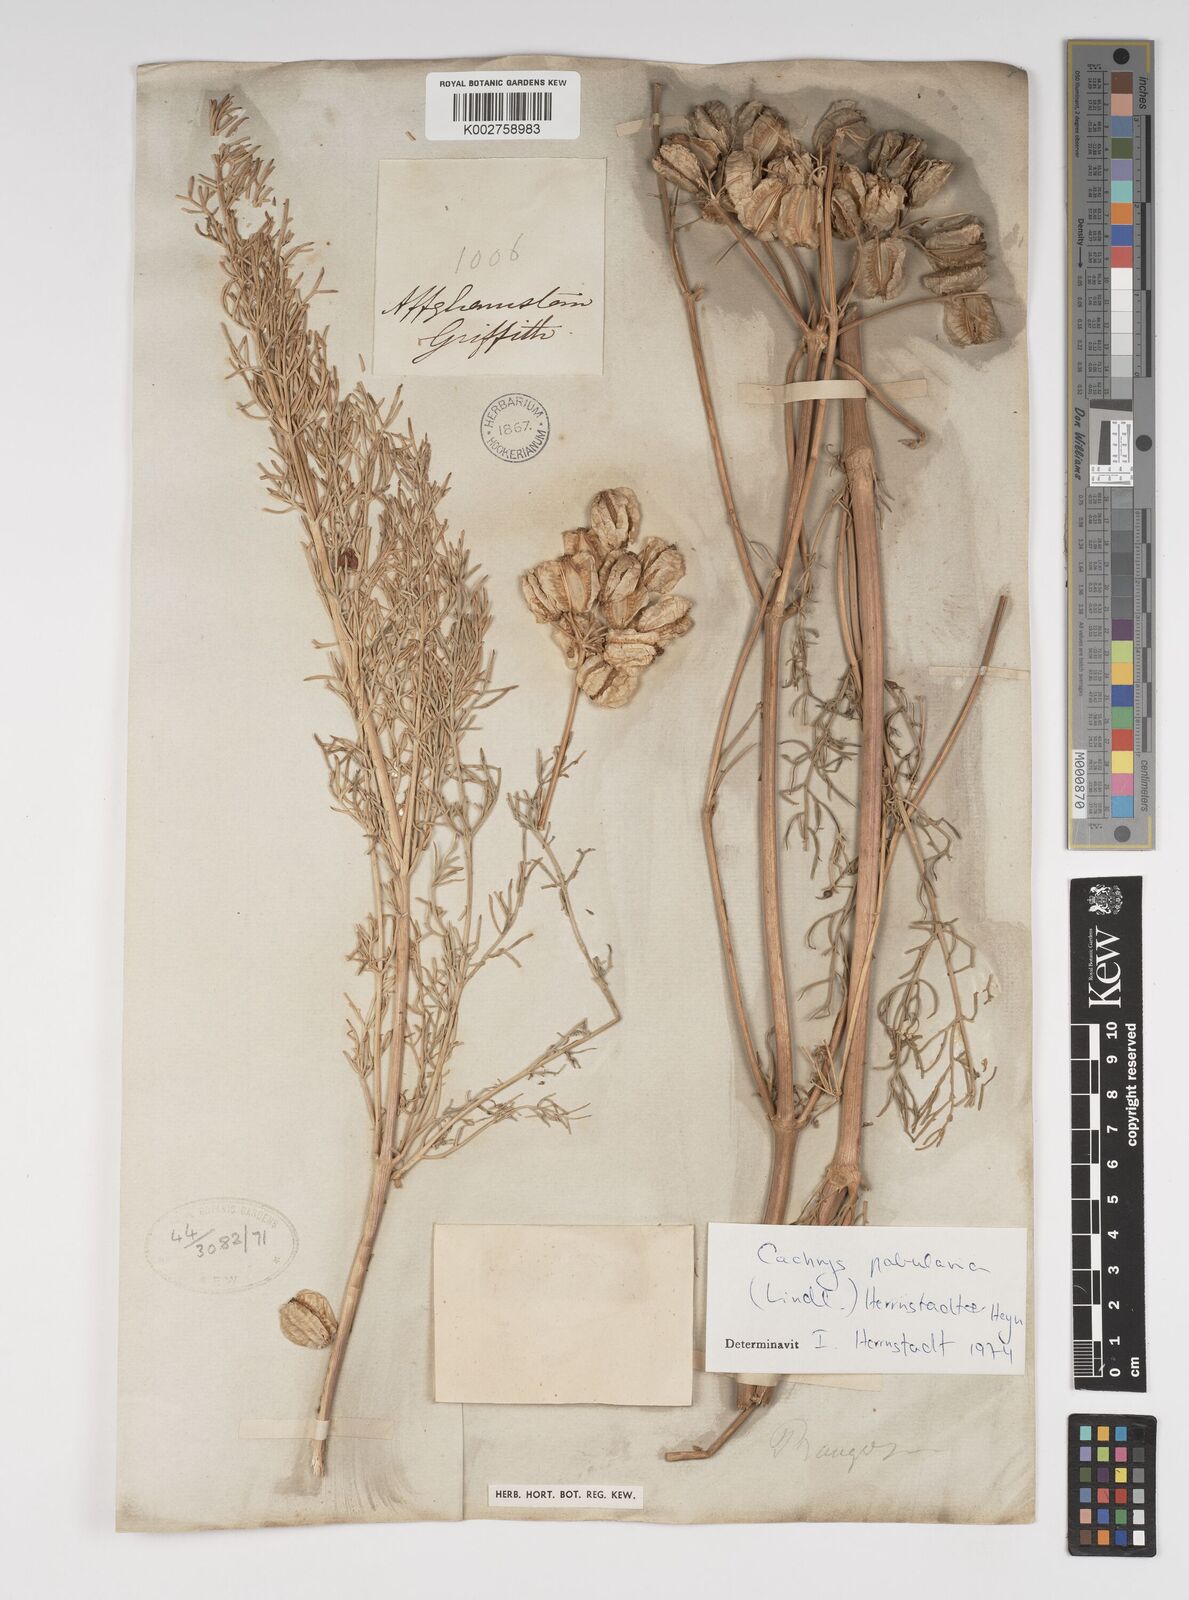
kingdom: Plantae
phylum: Tracheophyta
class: Magnoliopsida
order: Apiales
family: Apiaceae
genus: Prangos
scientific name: Prangos pabularia
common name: Yugan
